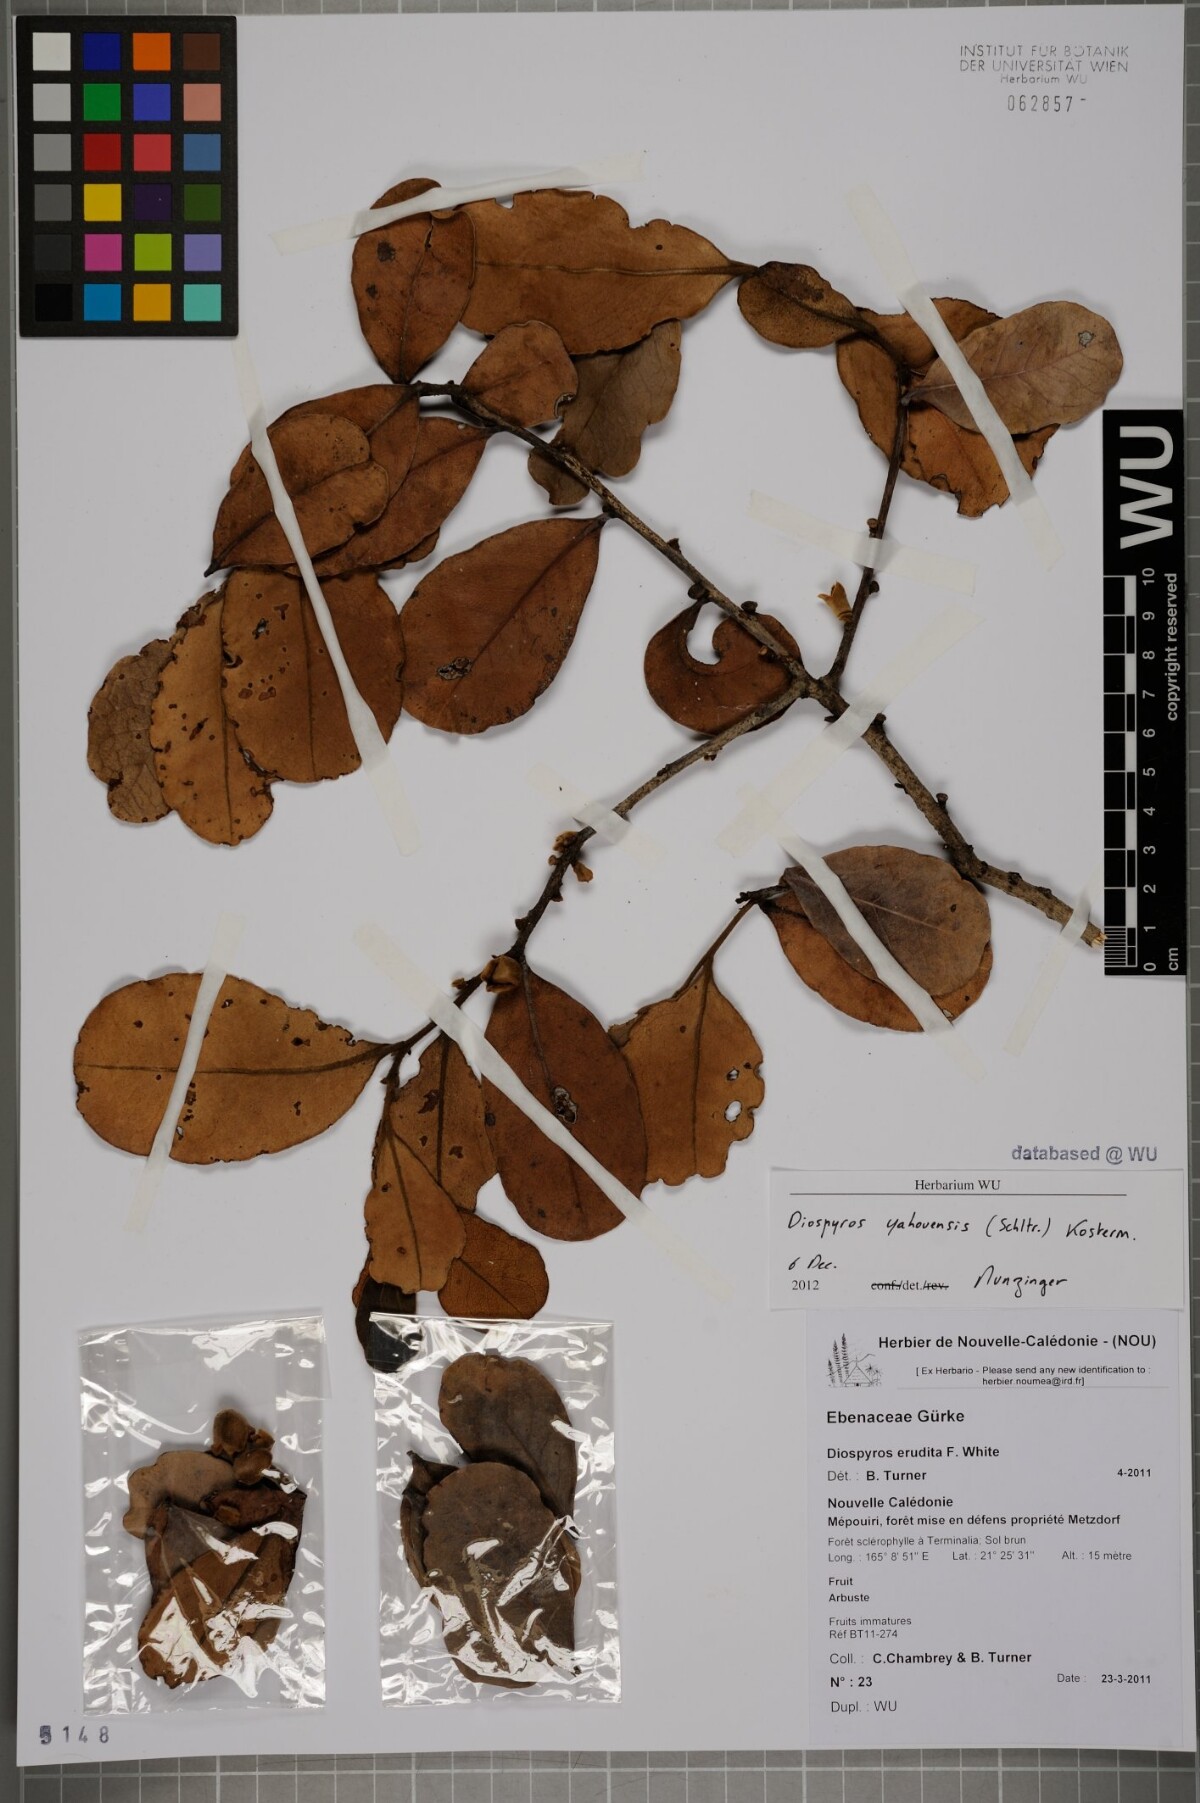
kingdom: Plantae
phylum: Tracheophyta
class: Magnoliopsida
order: Ericales
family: Ebenaceae
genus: Diospyros
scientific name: Diospyros
